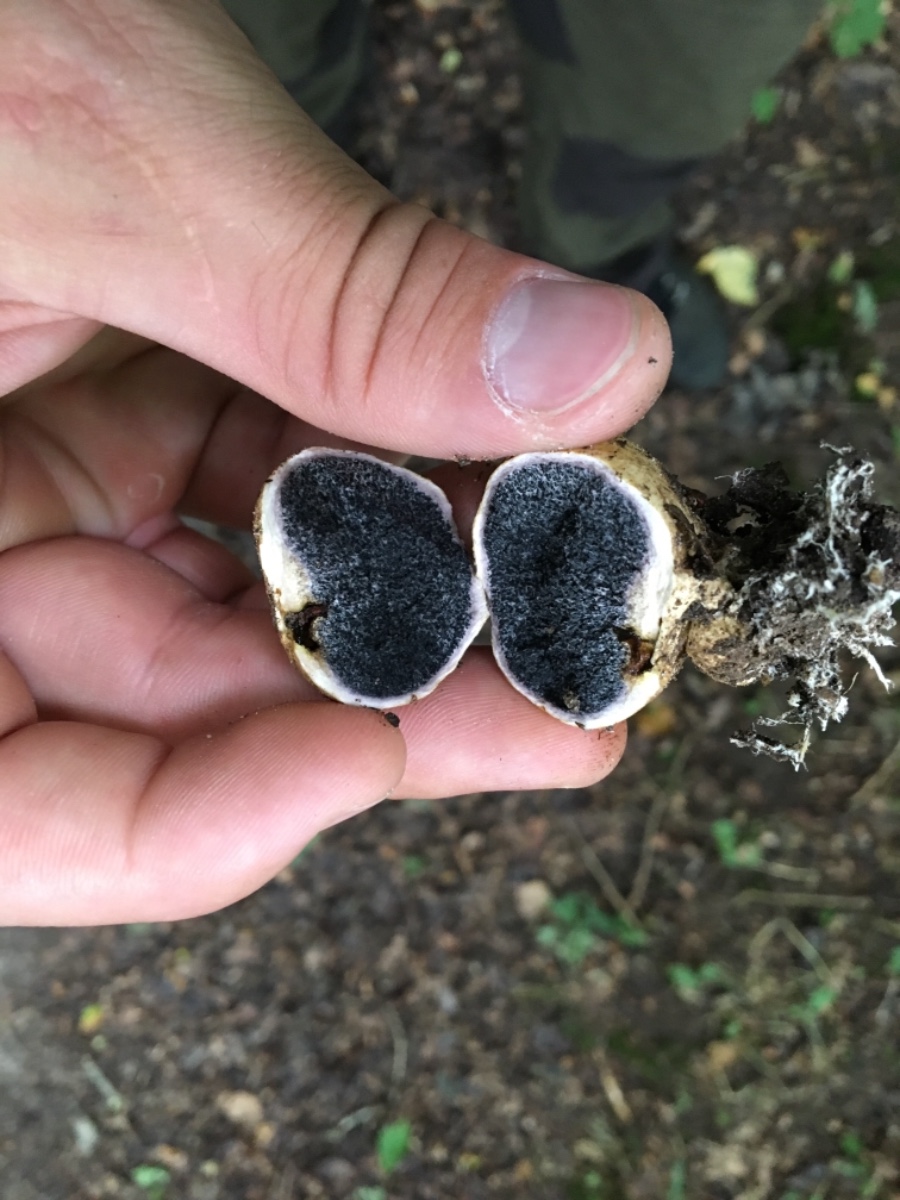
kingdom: Fungi
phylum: Basidiomycota
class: Agaricomycetes
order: Boletales
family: Sclerodermataceae
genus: Scleroderma
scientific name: Scleroderma
